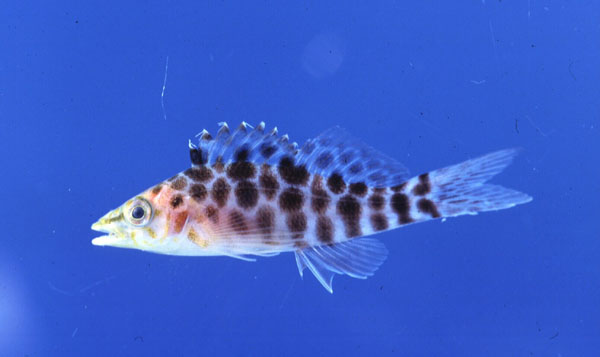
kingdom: Animalia
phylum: Chordata
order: Perciformes
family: Cirrhitidae
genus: Cirrhitichthys
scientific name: Cirrhitichthys guichenoti
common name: Cave hawkfish
